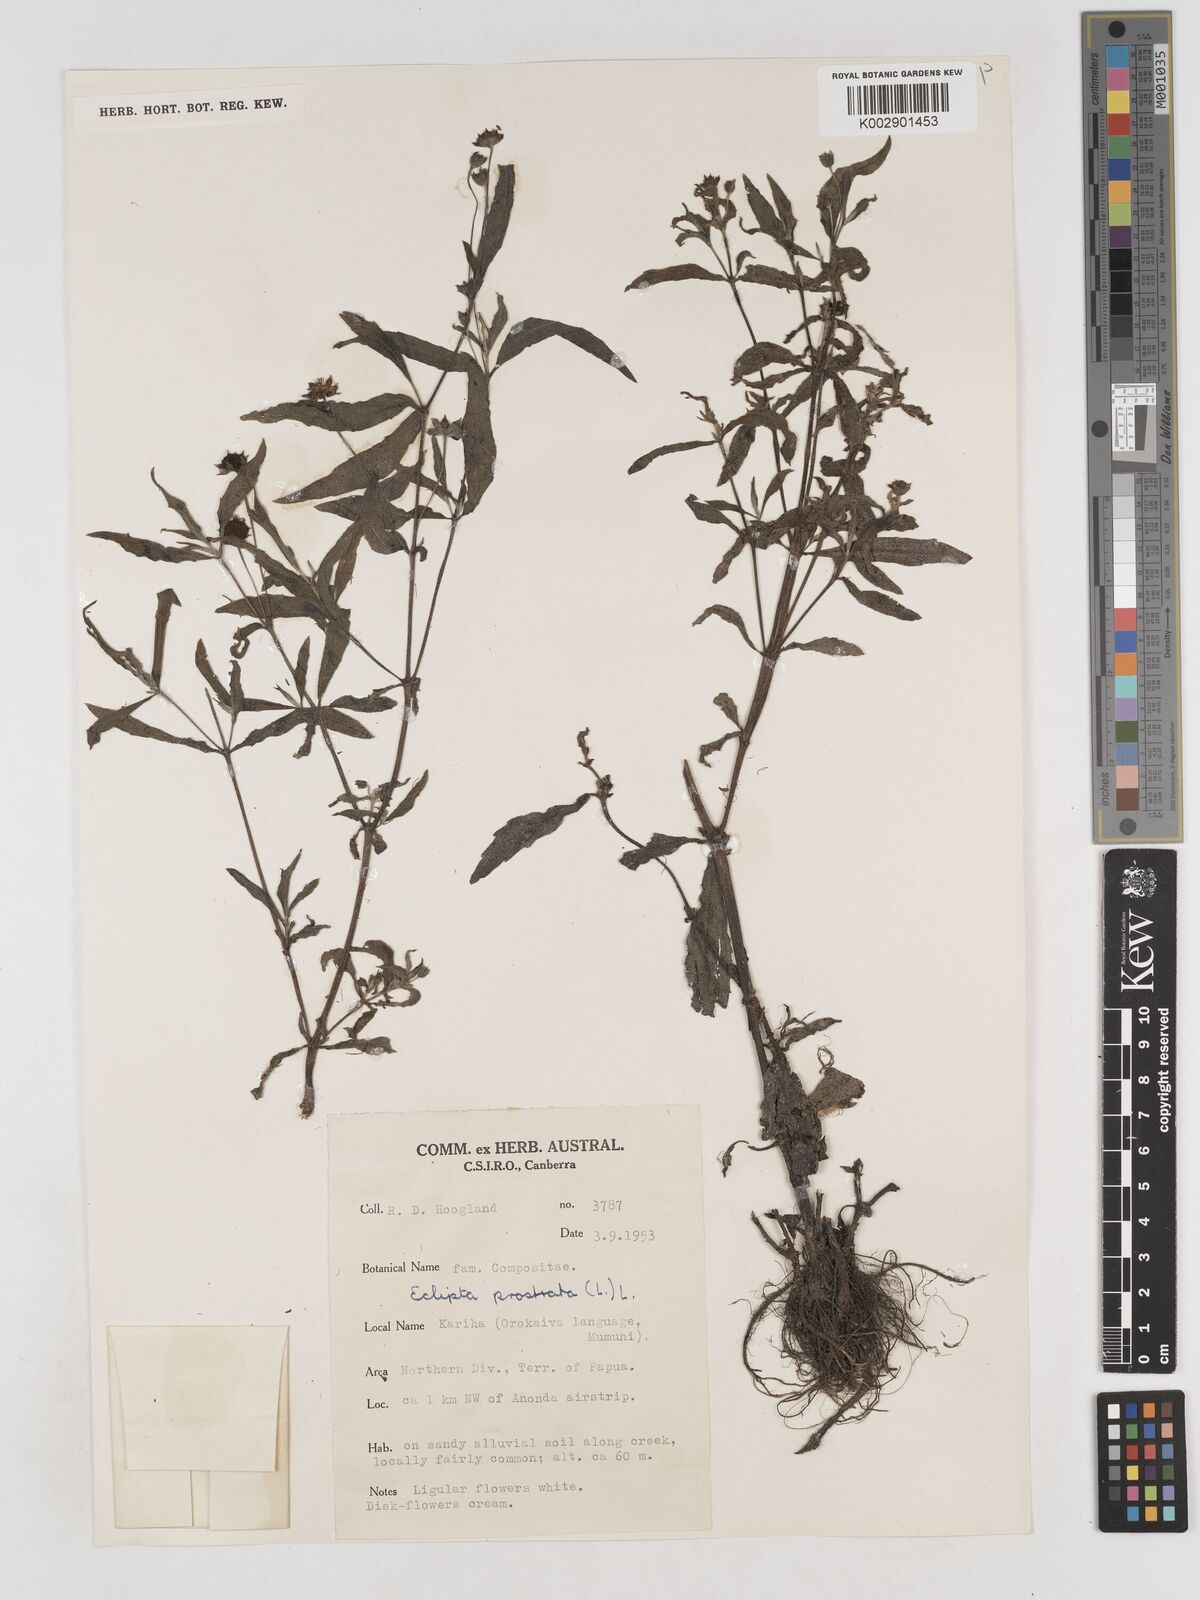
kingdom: Plantae
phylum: Tracheophyta
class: Magnoliopsida
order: Asterales
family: Asteraceae
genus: Eclipta
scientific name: Eclipta prostrata
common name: False daisy
